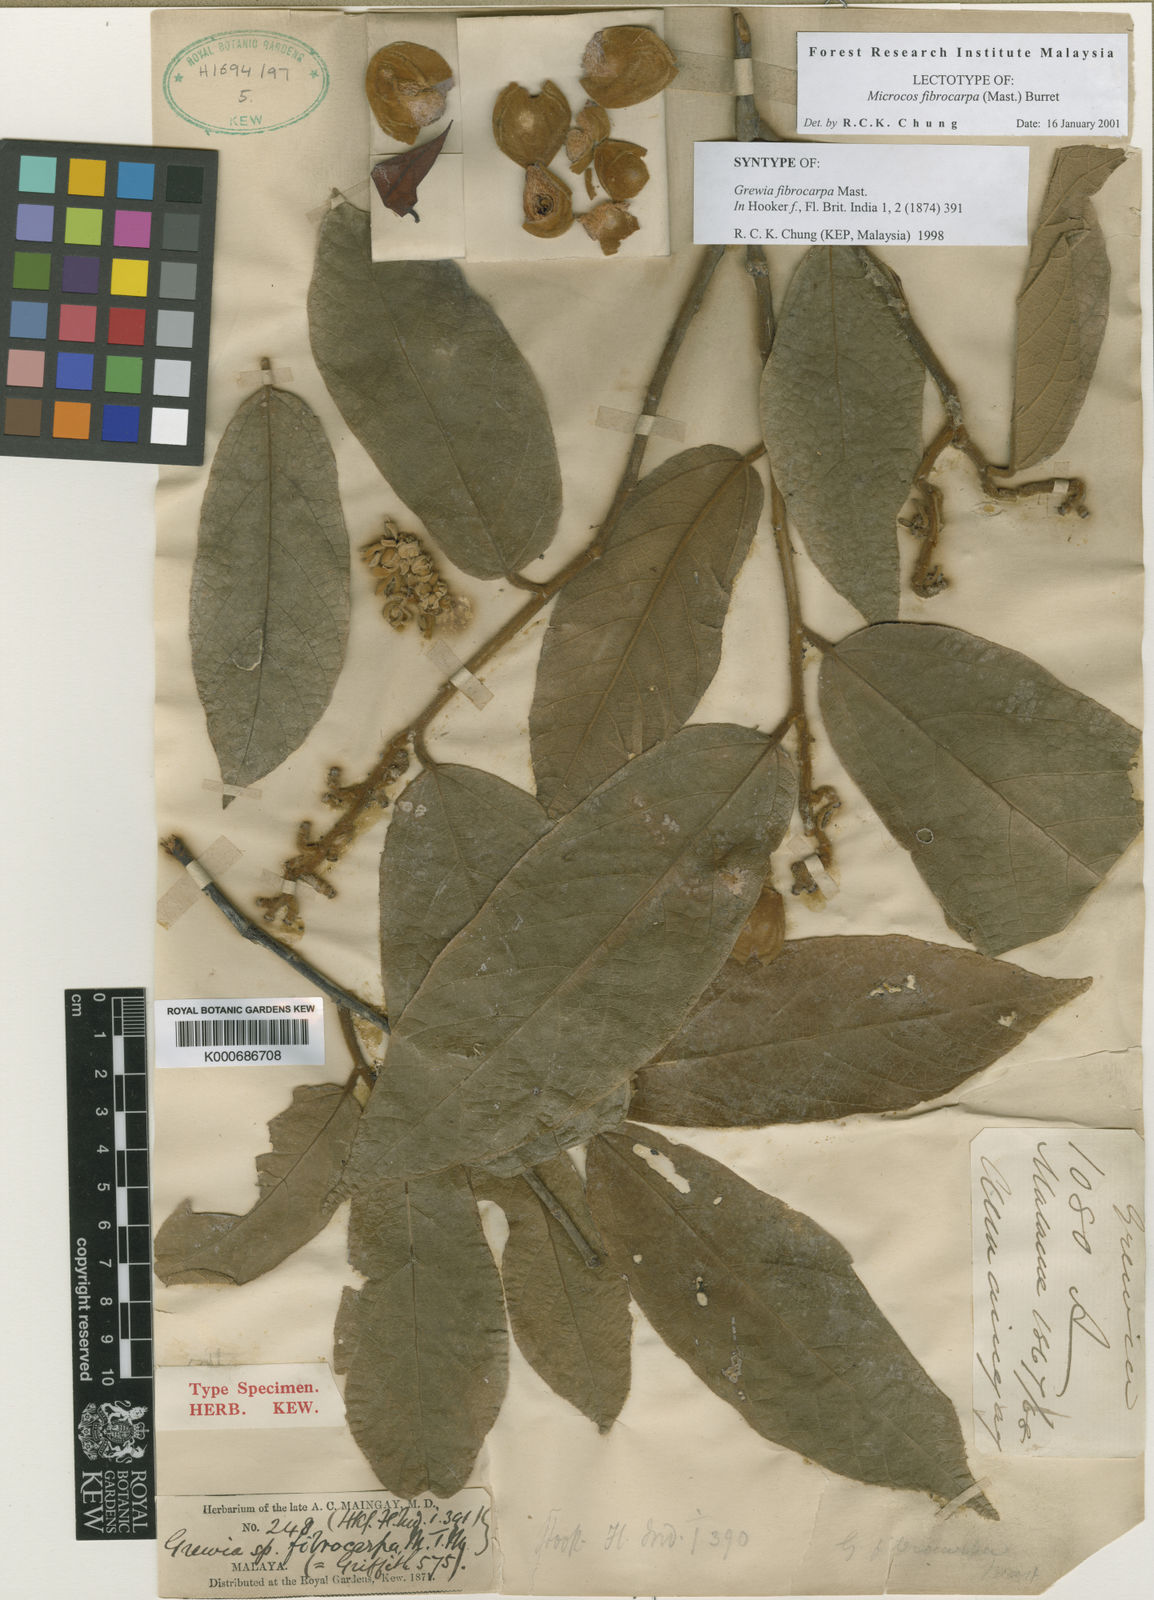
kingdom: Plantae
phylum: Tracheophyta
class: Magnoliopsida
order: Malvales
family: Malvaceae
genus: Microcos
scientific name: Microcos fibrocarpa
